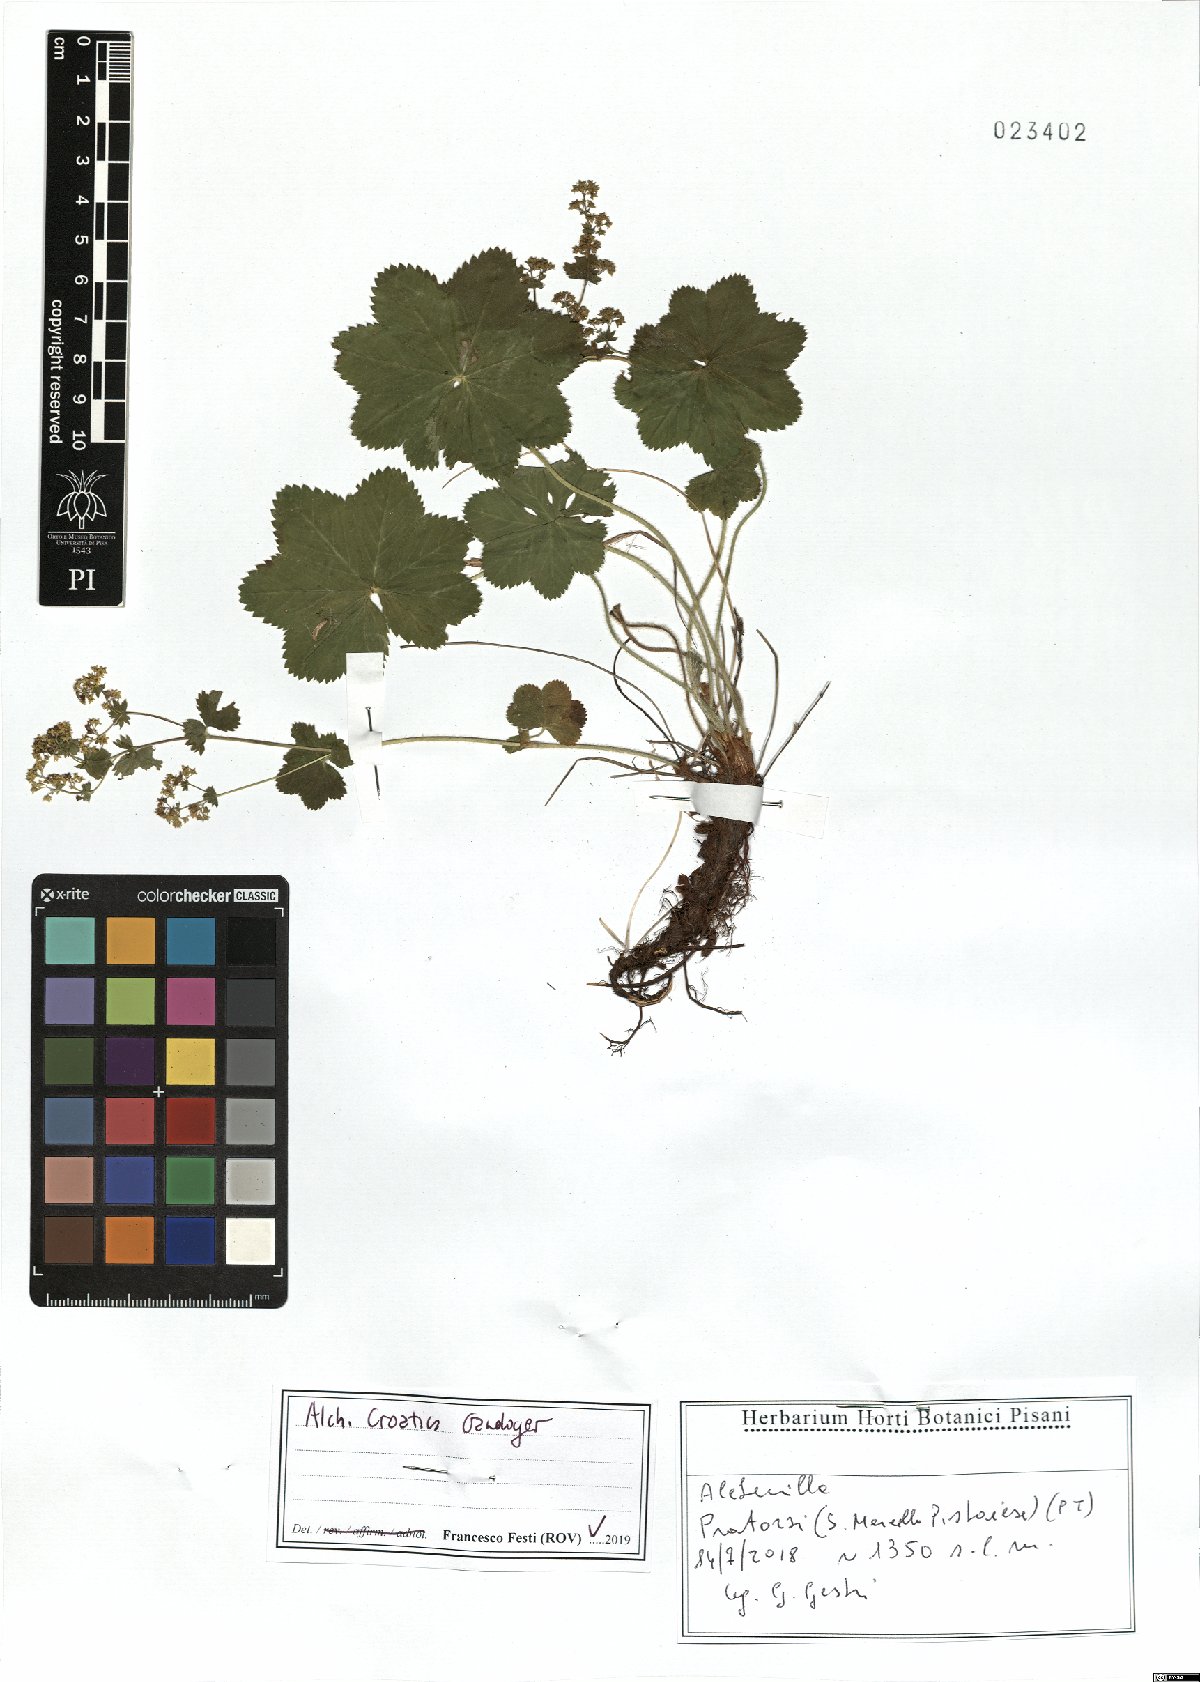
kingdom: Plantae
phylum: Tracheophyta
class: Magnoliopsida
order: Rosales
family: Rosaceae
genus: Alchemilla
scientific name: Alchemilla croatica
